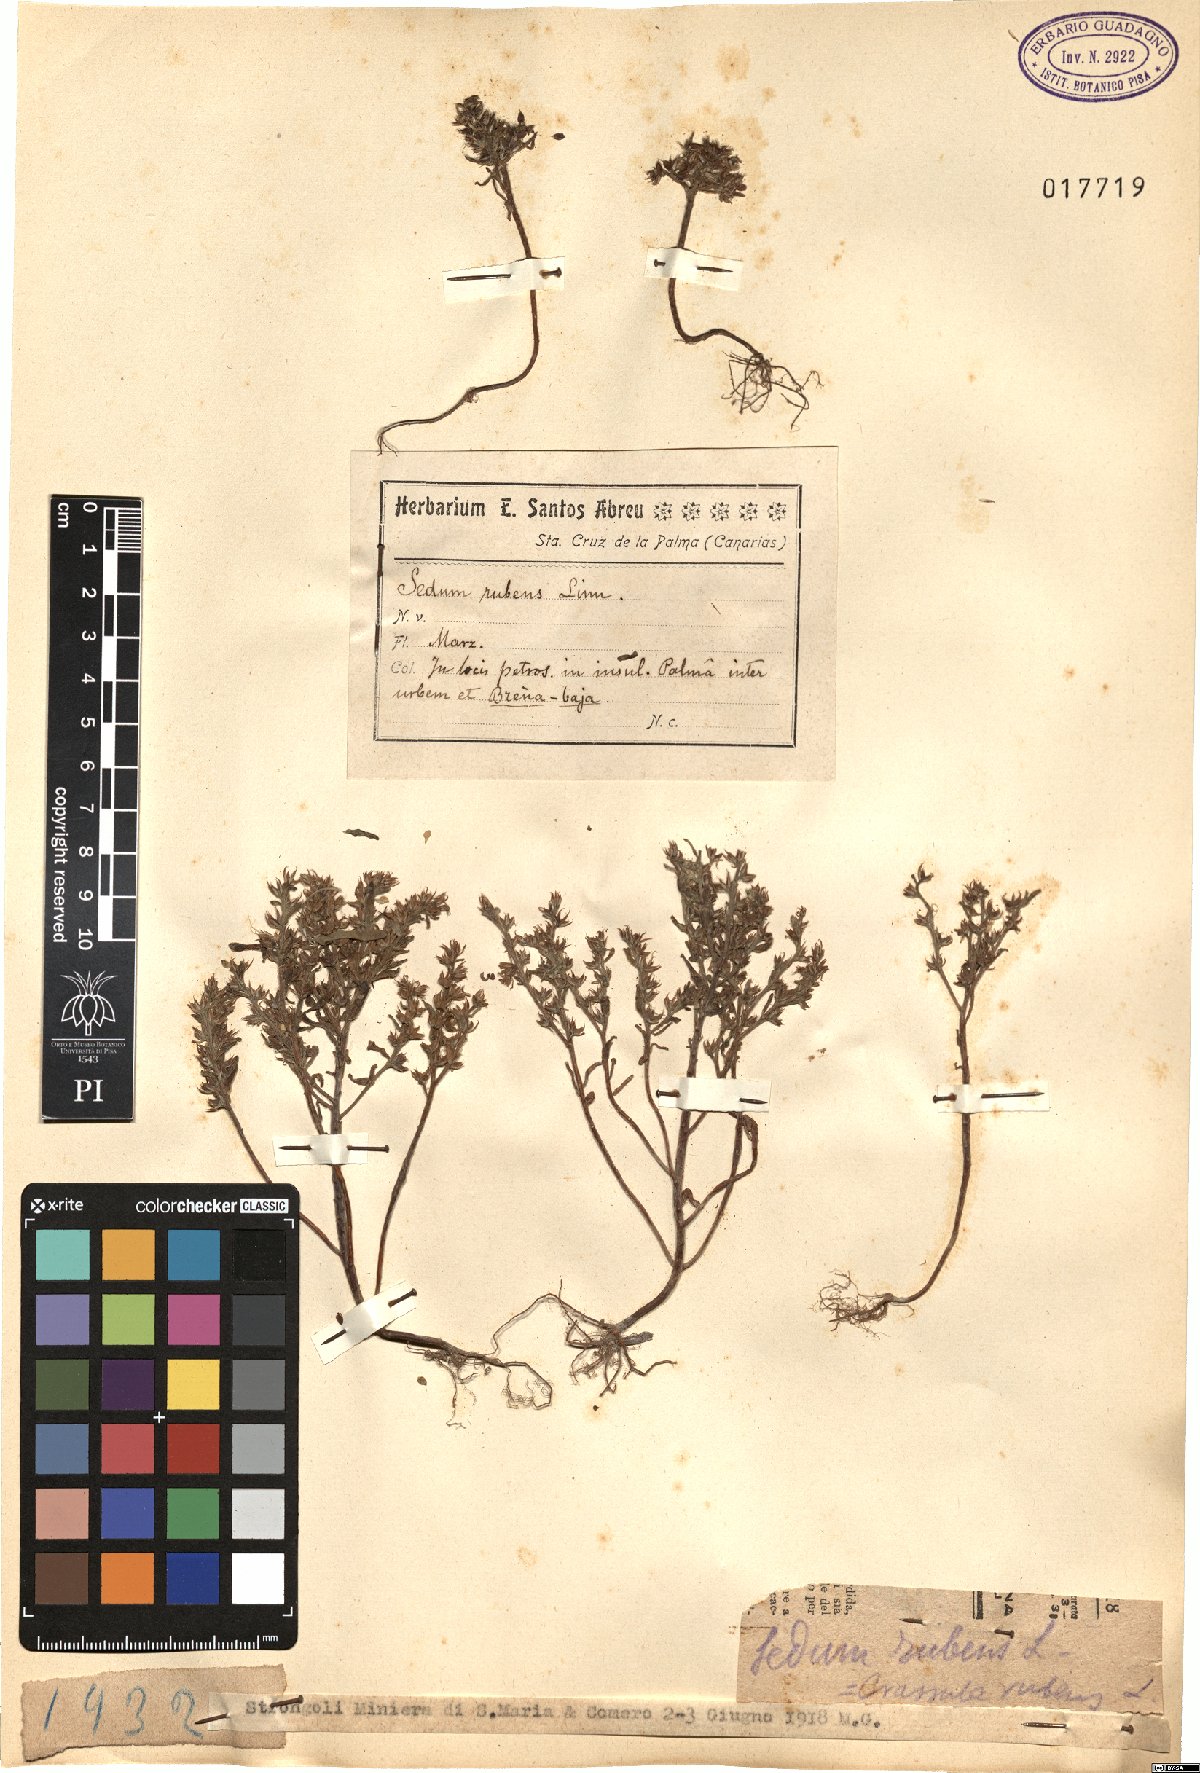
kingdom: Plantae
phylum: Tracheophyta
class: Magnoliopsida
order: Saxifragales
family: Crassulaceae
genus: Sedum
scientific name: Sedum rubens
